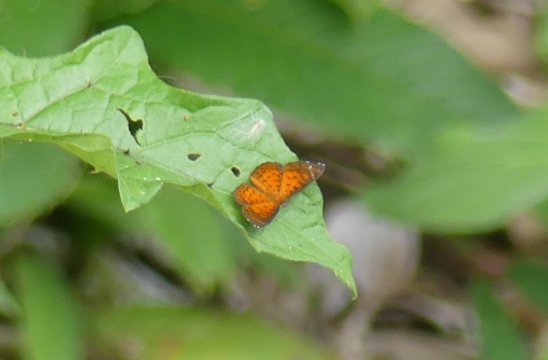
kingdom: Animalia
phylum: Arthropoda
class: Insecta
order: Lepidoptera
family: Riodinidae
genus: Polystichtis
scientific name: Polystichtis lucianus
